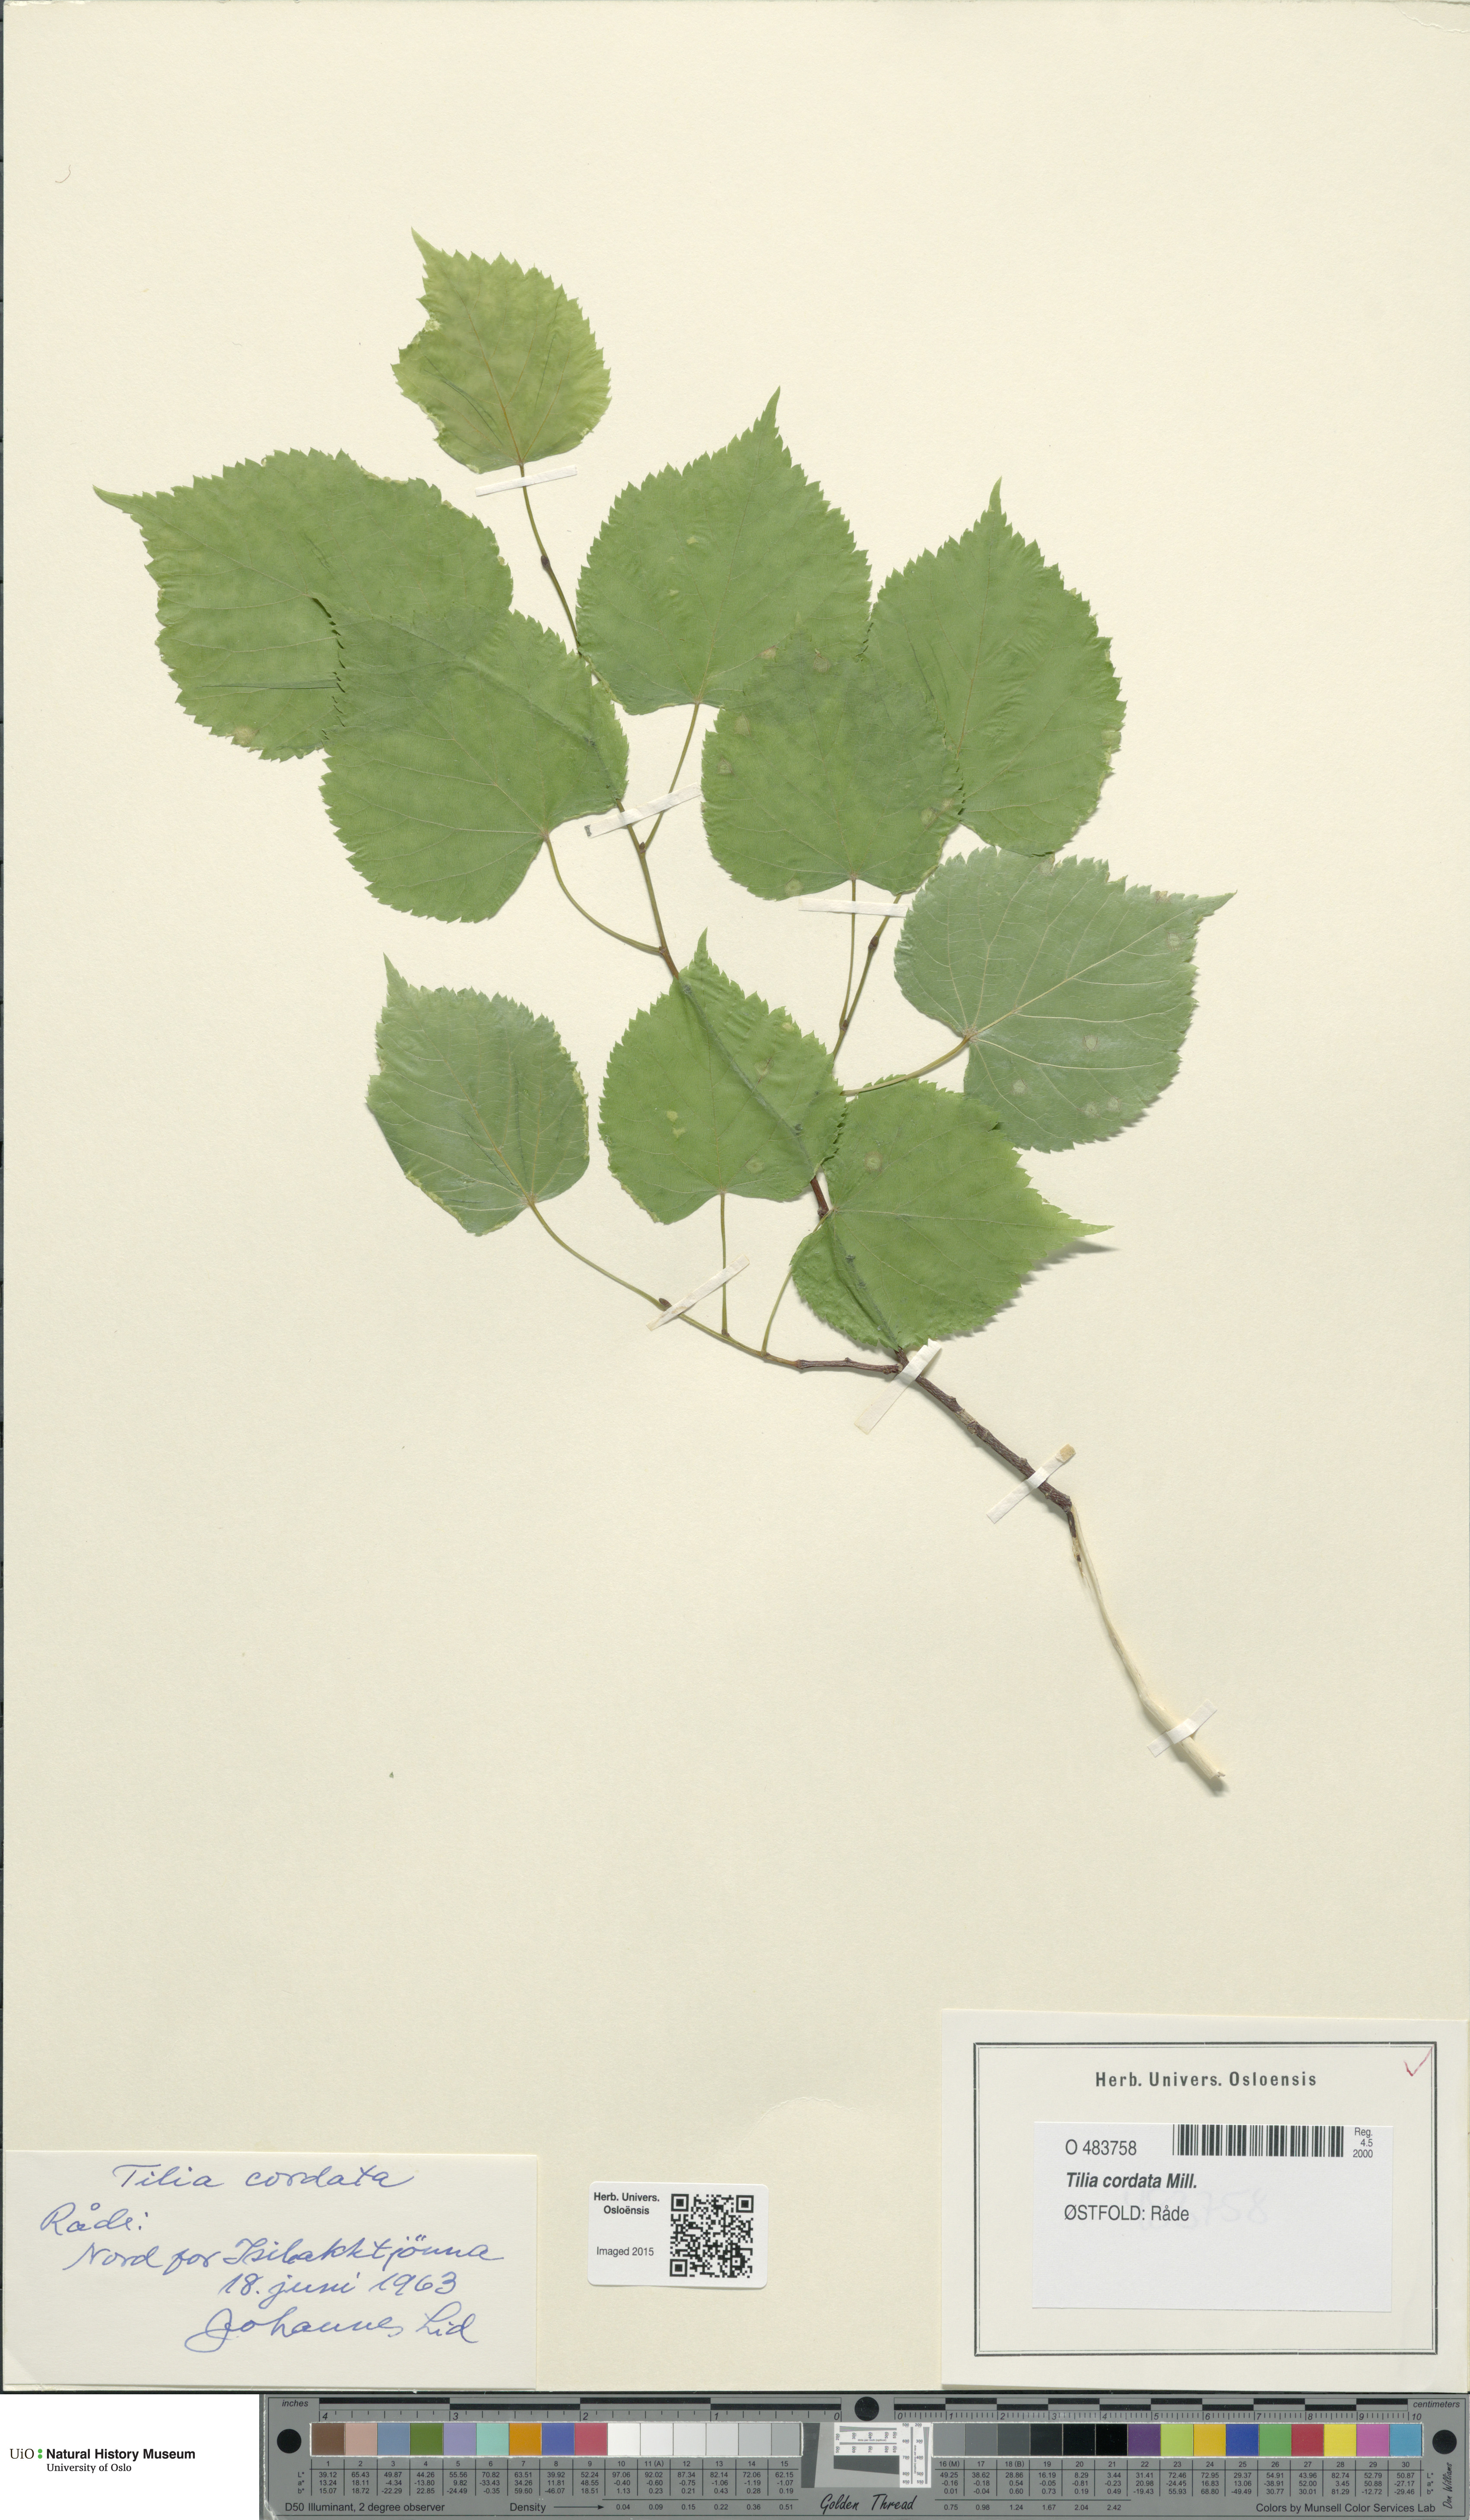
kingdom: Plantae
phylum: Tracheophyta
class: Magnoliopsida
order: Malvales
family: Malvaceae
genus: Tilia
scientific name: Tilia cordata
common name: Small-leaved lime
